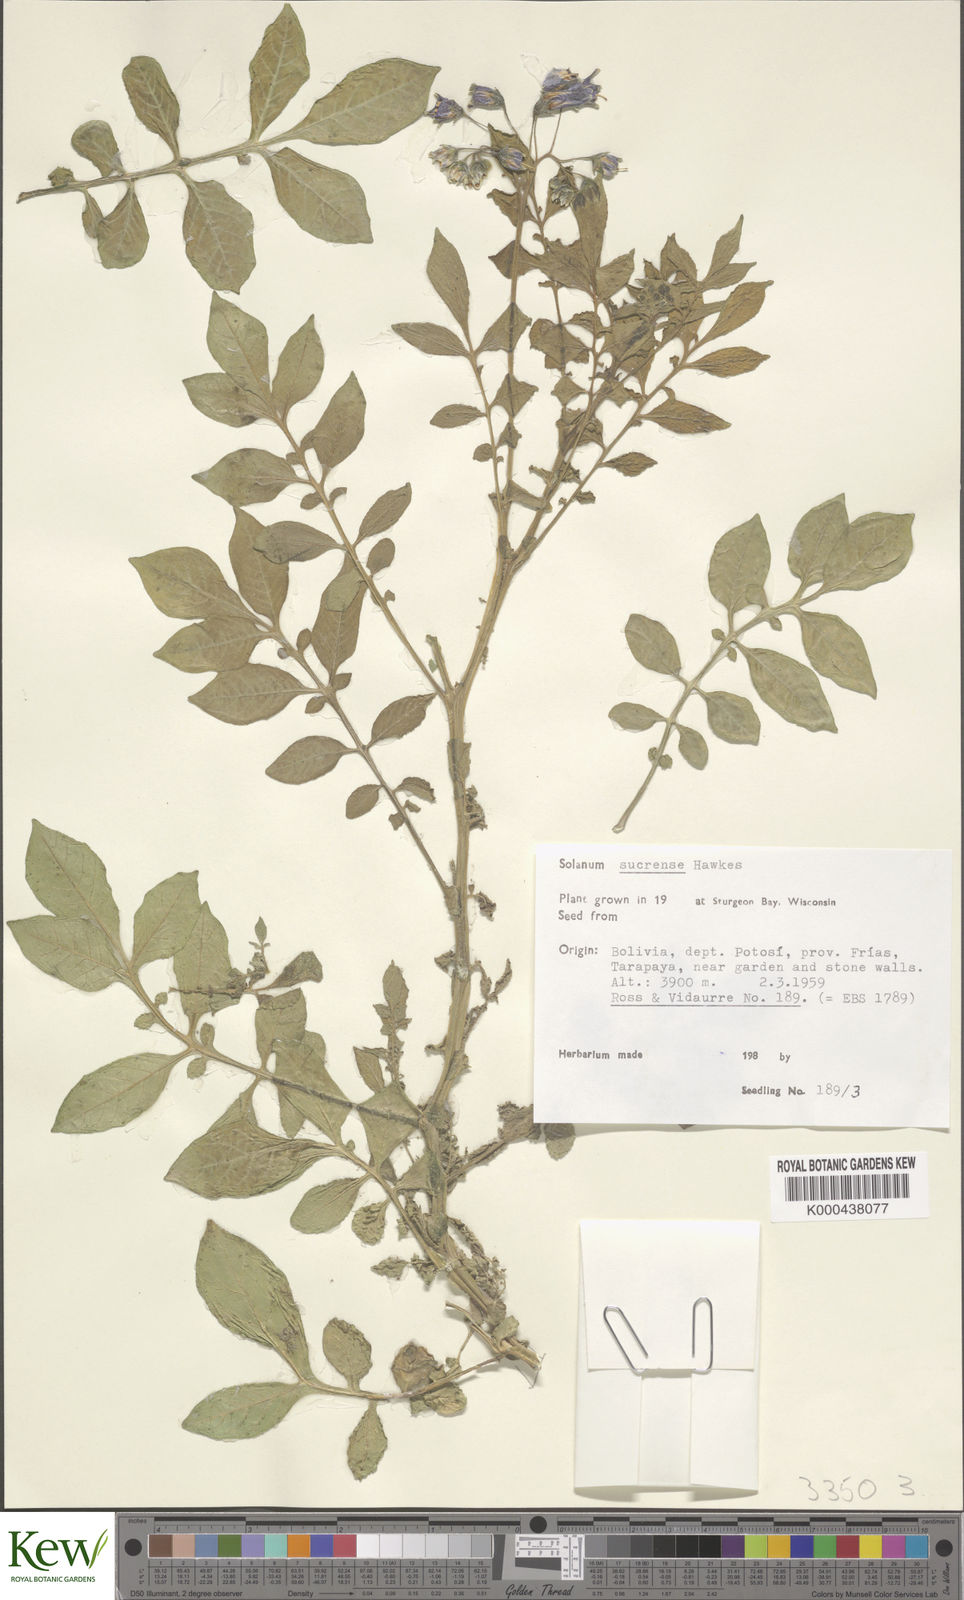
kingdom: Plantae
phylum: Tracheophyta
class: Magnoliopsida
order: Solanales
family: Solanaceae
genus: Solanum
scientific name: Solanum brevicaule
